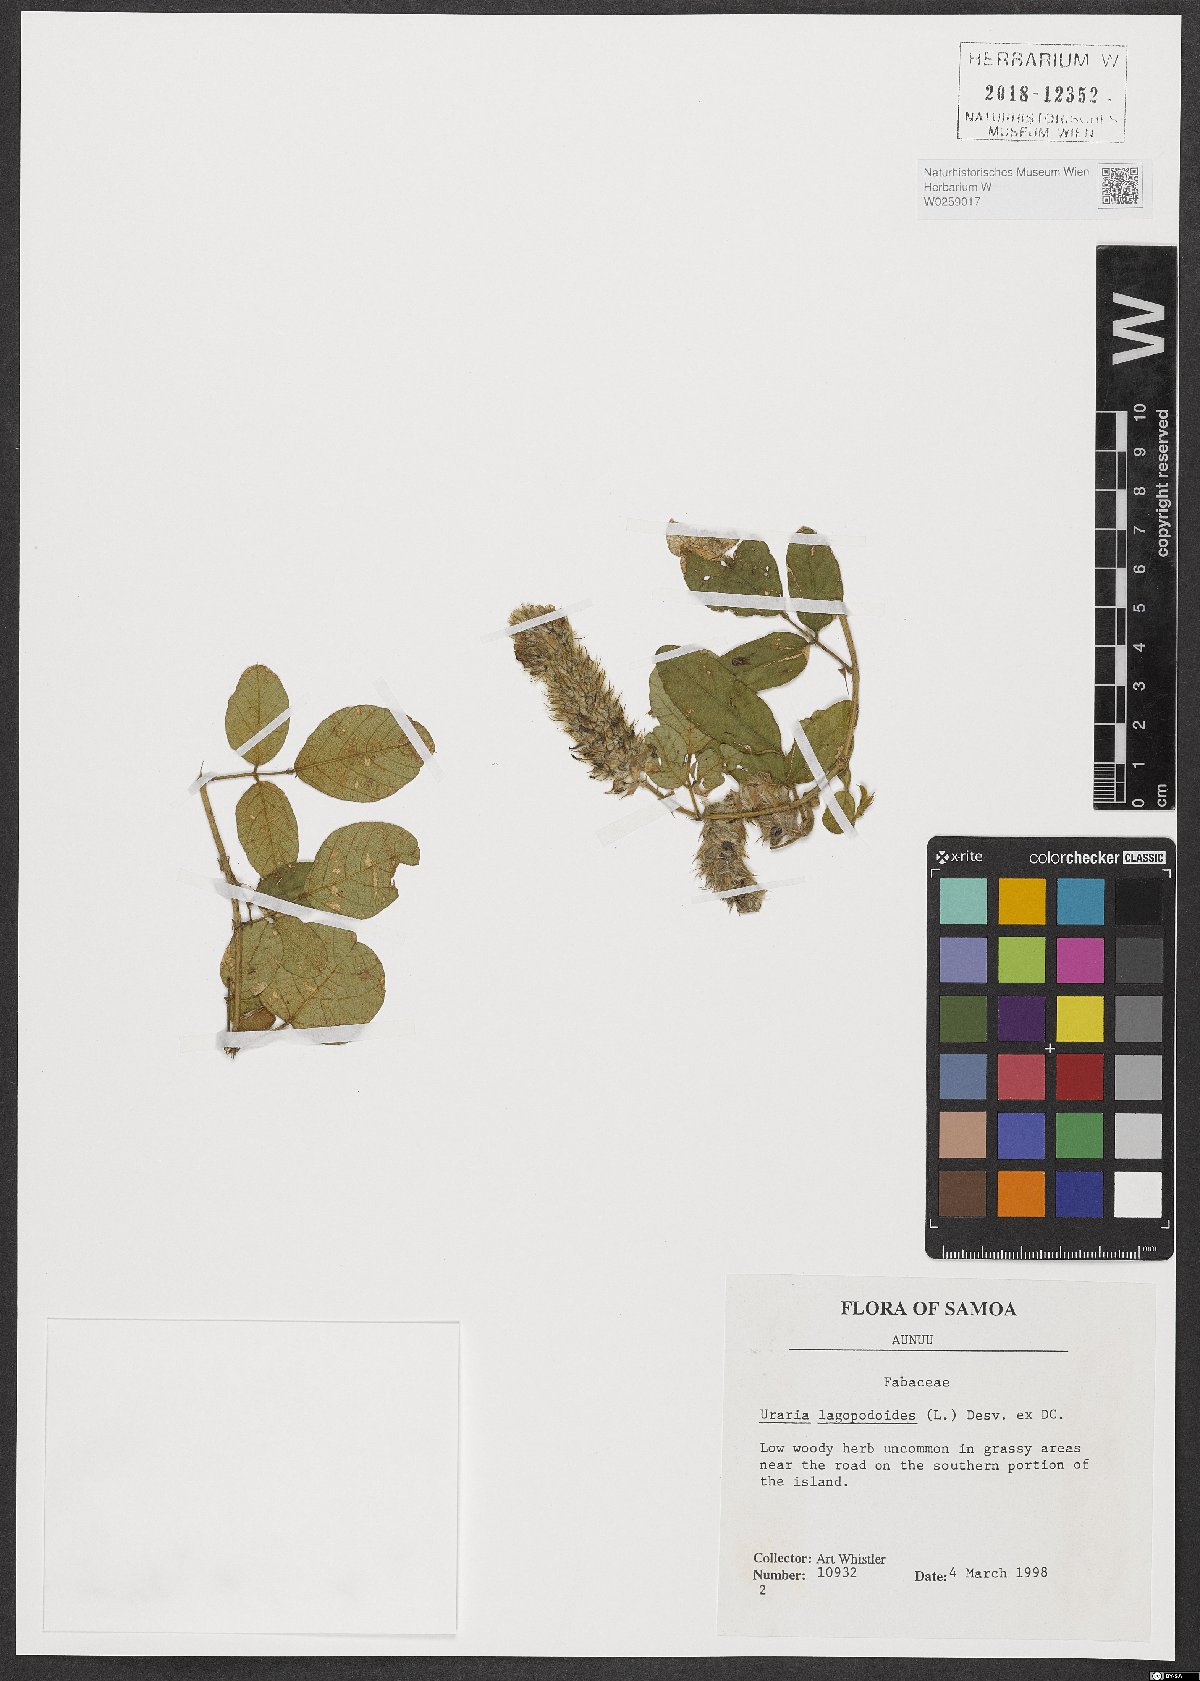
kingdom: Plantae
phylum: Tracheophyta
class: Magnoliopsida
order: Fabales
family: Fabaceae
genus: Uraria
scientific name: Uraria lagopodioides
